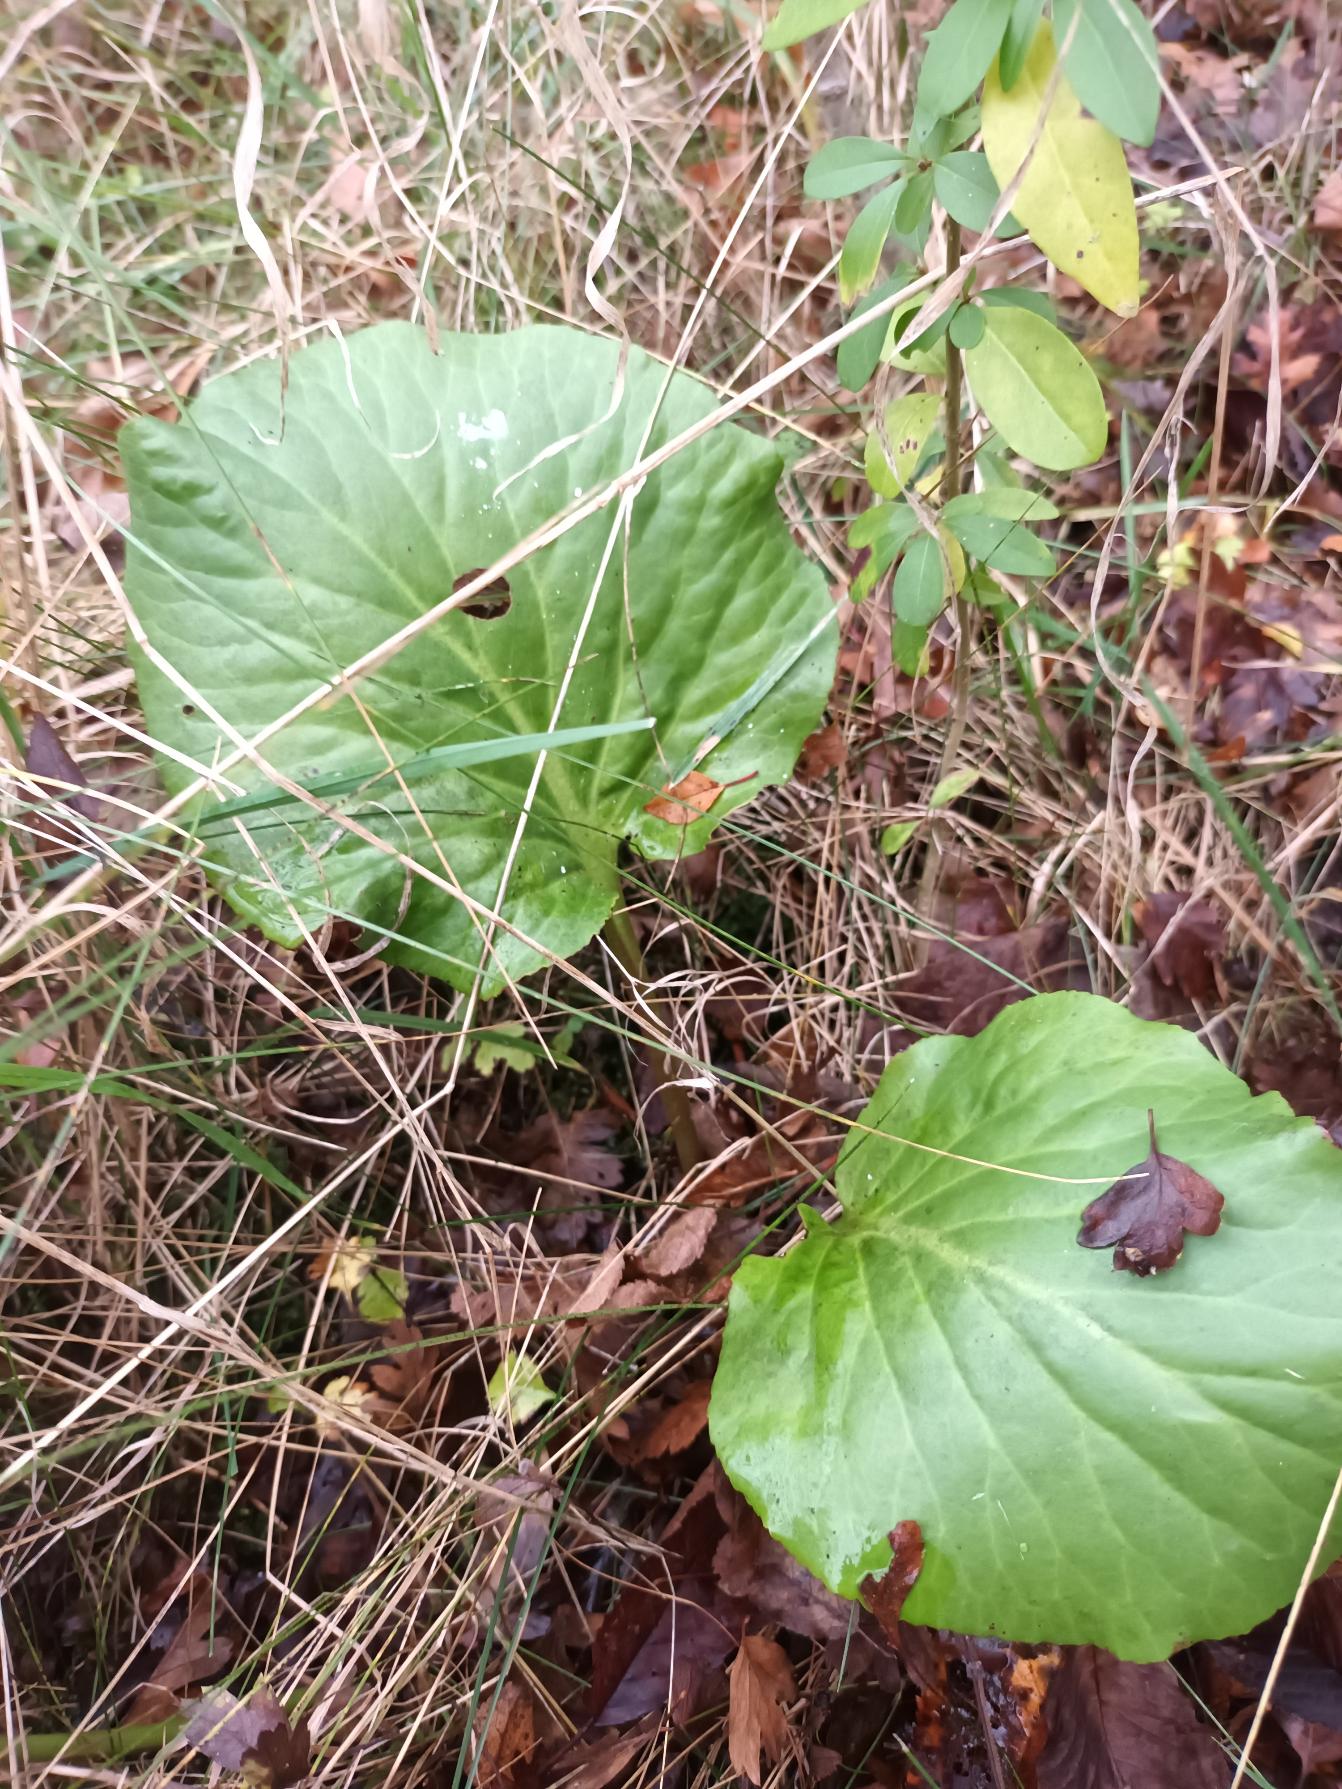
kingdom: Plantae
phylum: Tracheophyta
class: Magnoliopsida
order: Saxifragales
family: Saxifragaceae
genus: Bergenia
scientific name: Bergenia crassifolia
